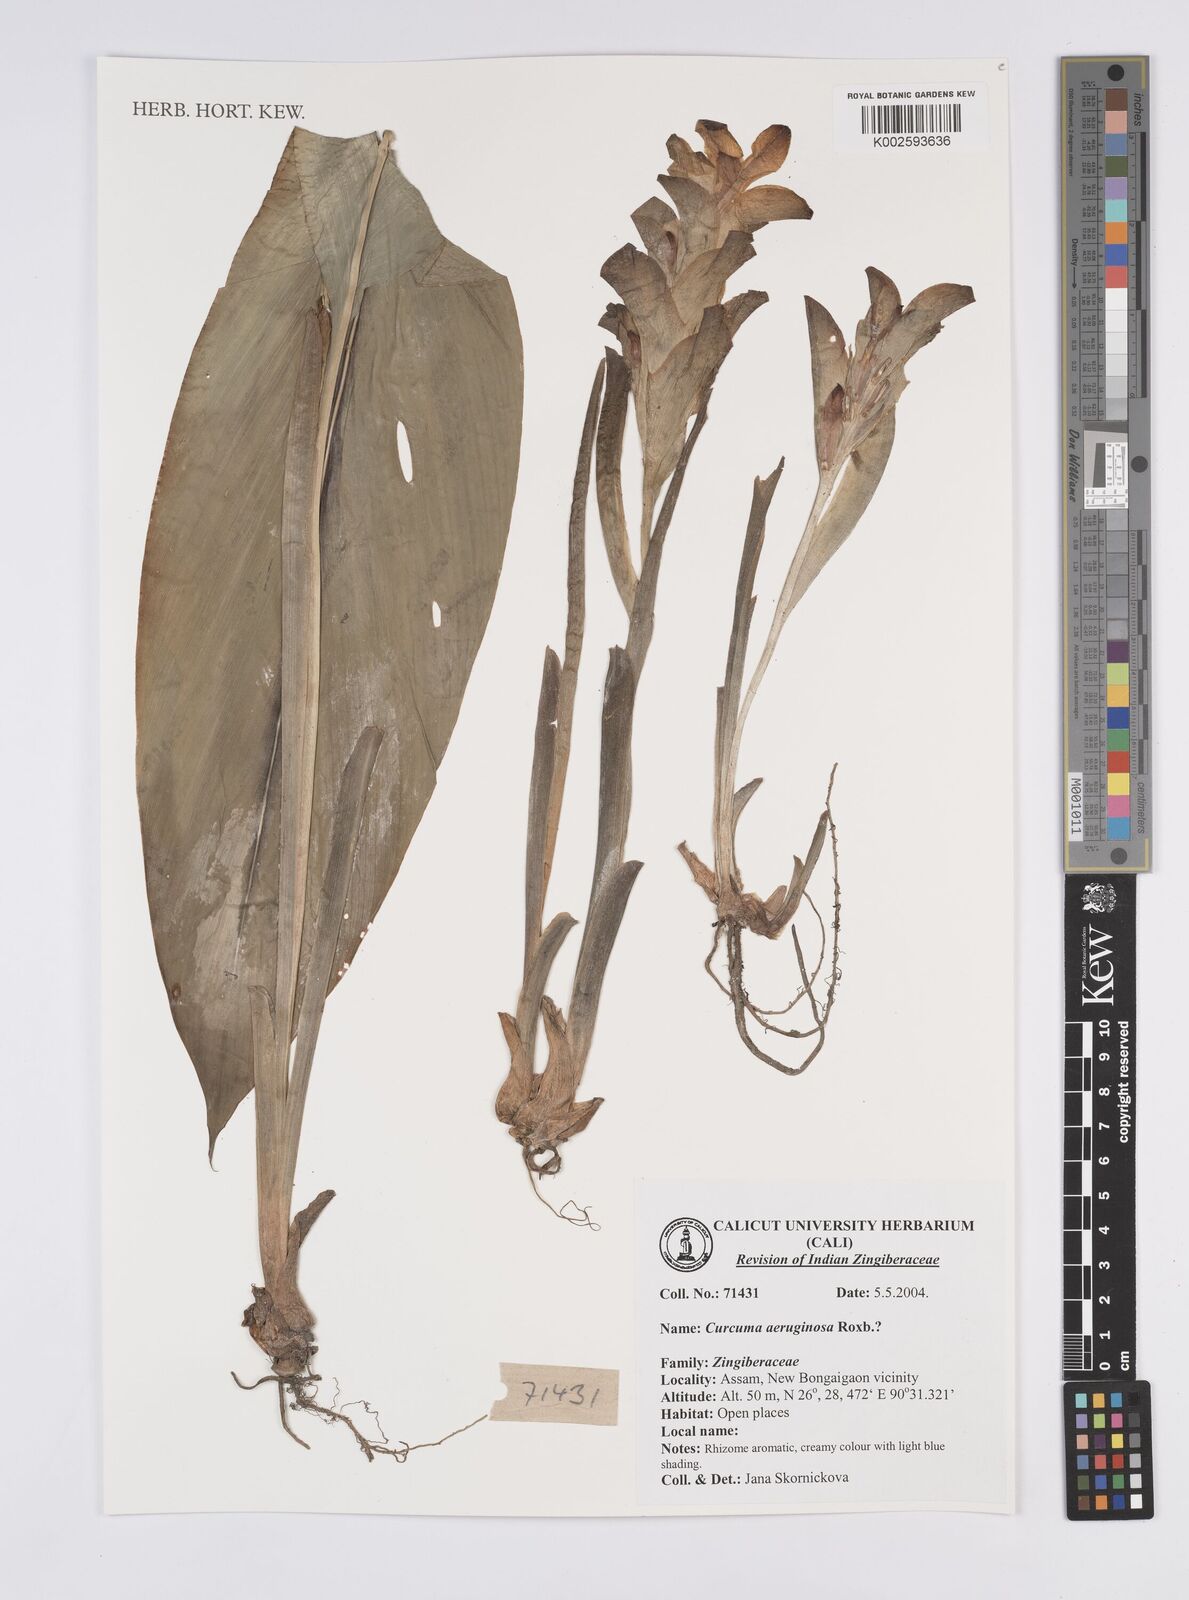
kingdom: Plantae
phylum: Tracheophyta
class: Liliopsida
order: Zingiberales
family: Zingiberaceae
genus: Curcuma
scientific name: Curcuma aeruginosa
